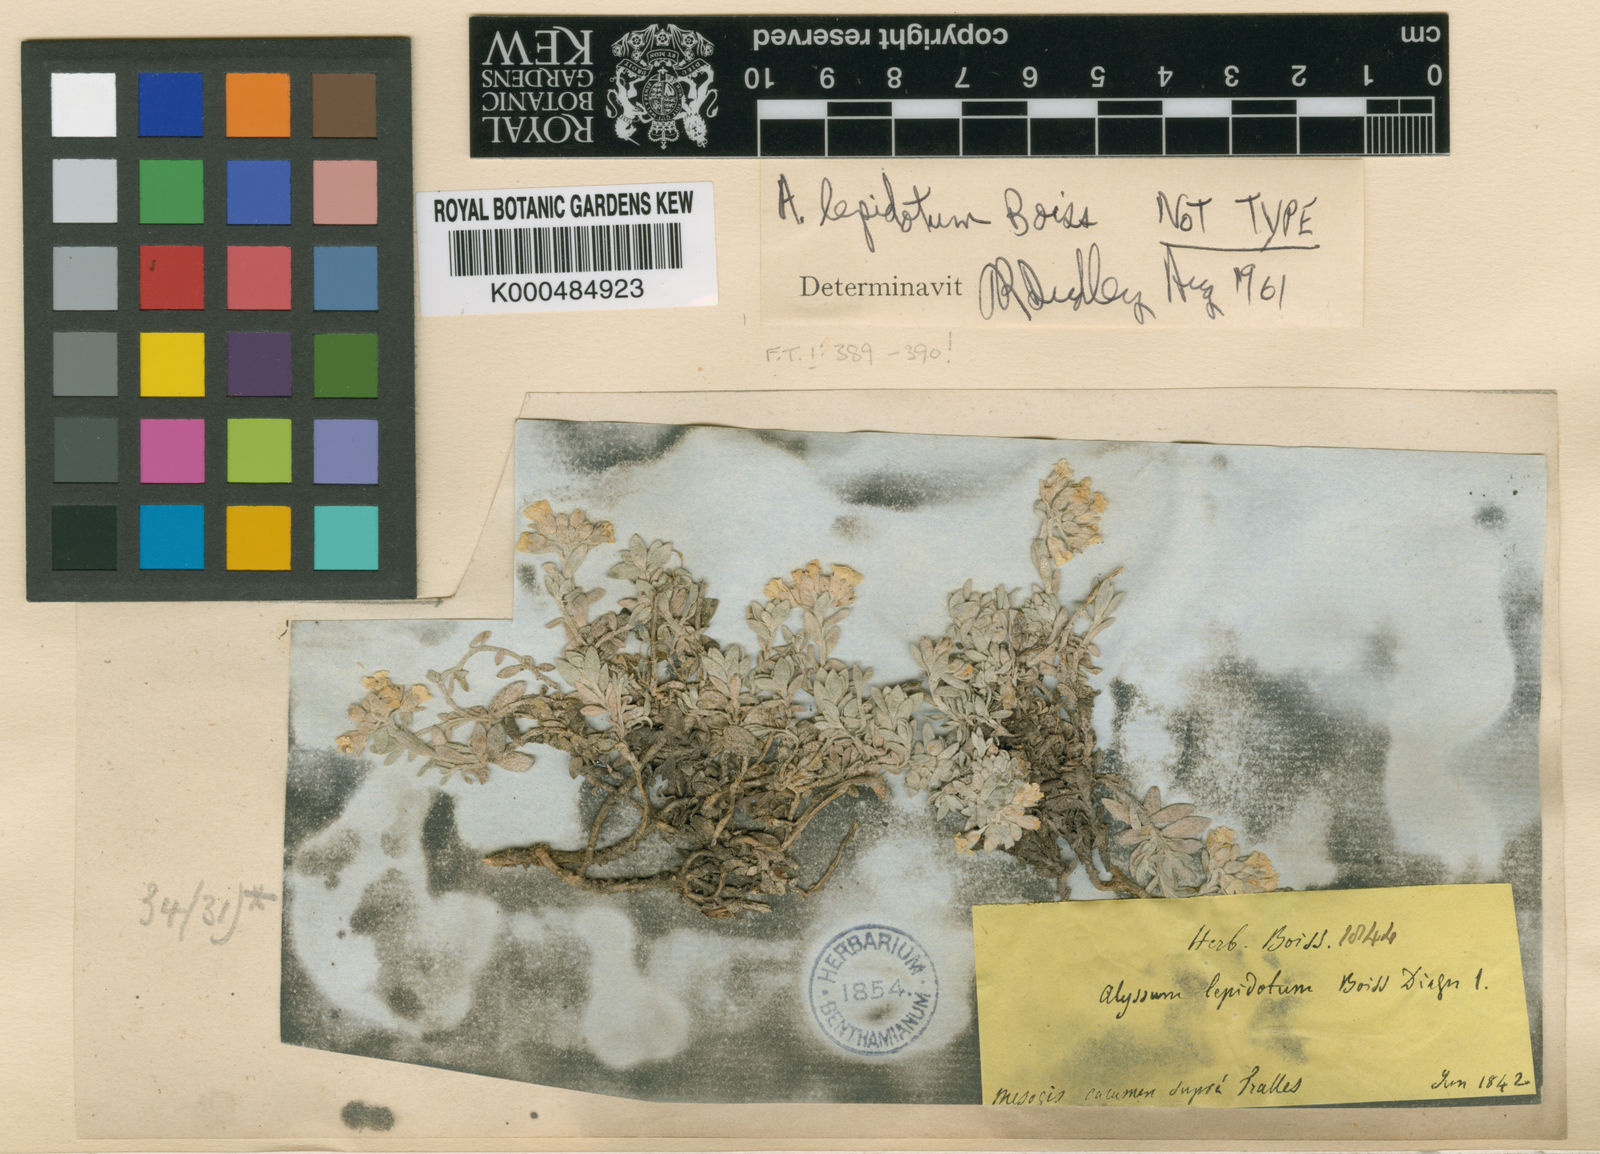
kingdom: Plantae
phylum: Tracheophyta
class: Magnoliopsida
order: Brassicales
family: Brassicaceae
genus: Alyssum
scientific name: Alyssum lepidotum
